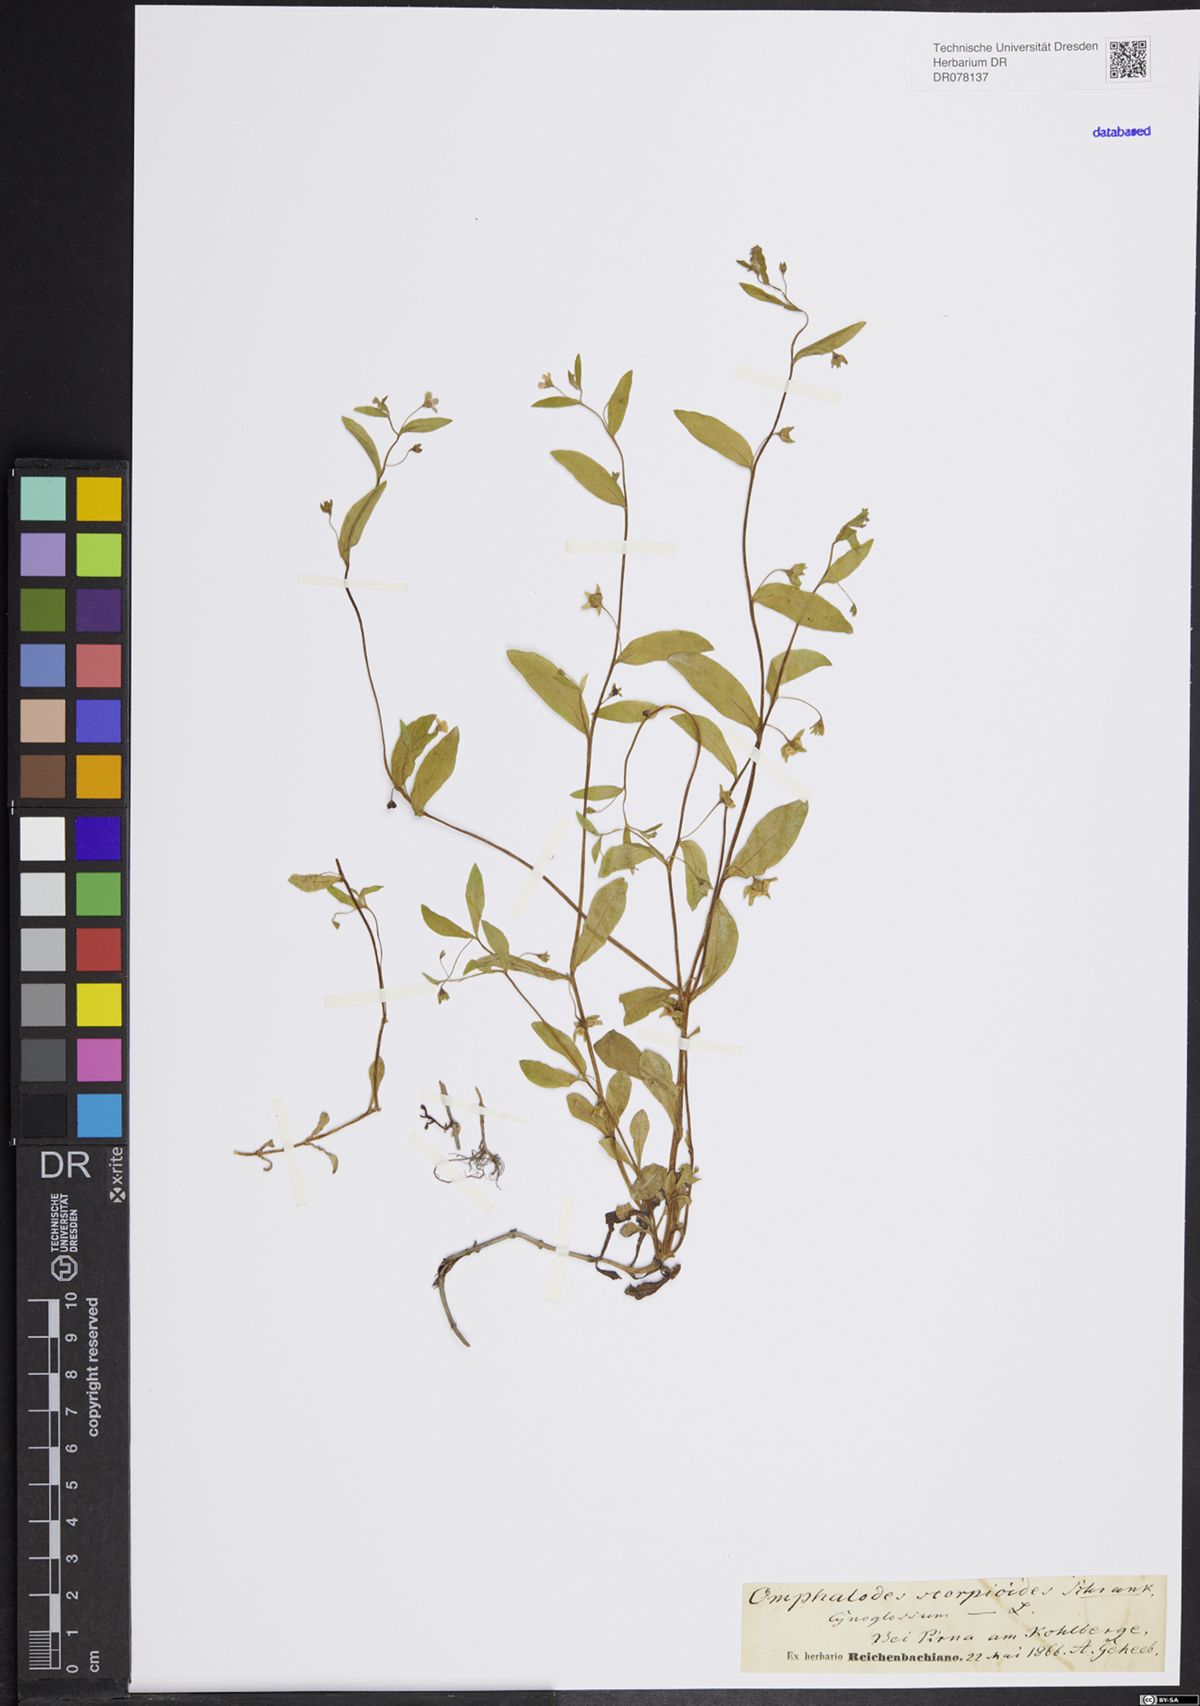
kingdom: Plantae
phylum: Tracheophyta
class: Magnoliopsida
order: Boraginales
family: Boraginaceae
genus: Memoremea
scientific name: Memoremea scorpioides
